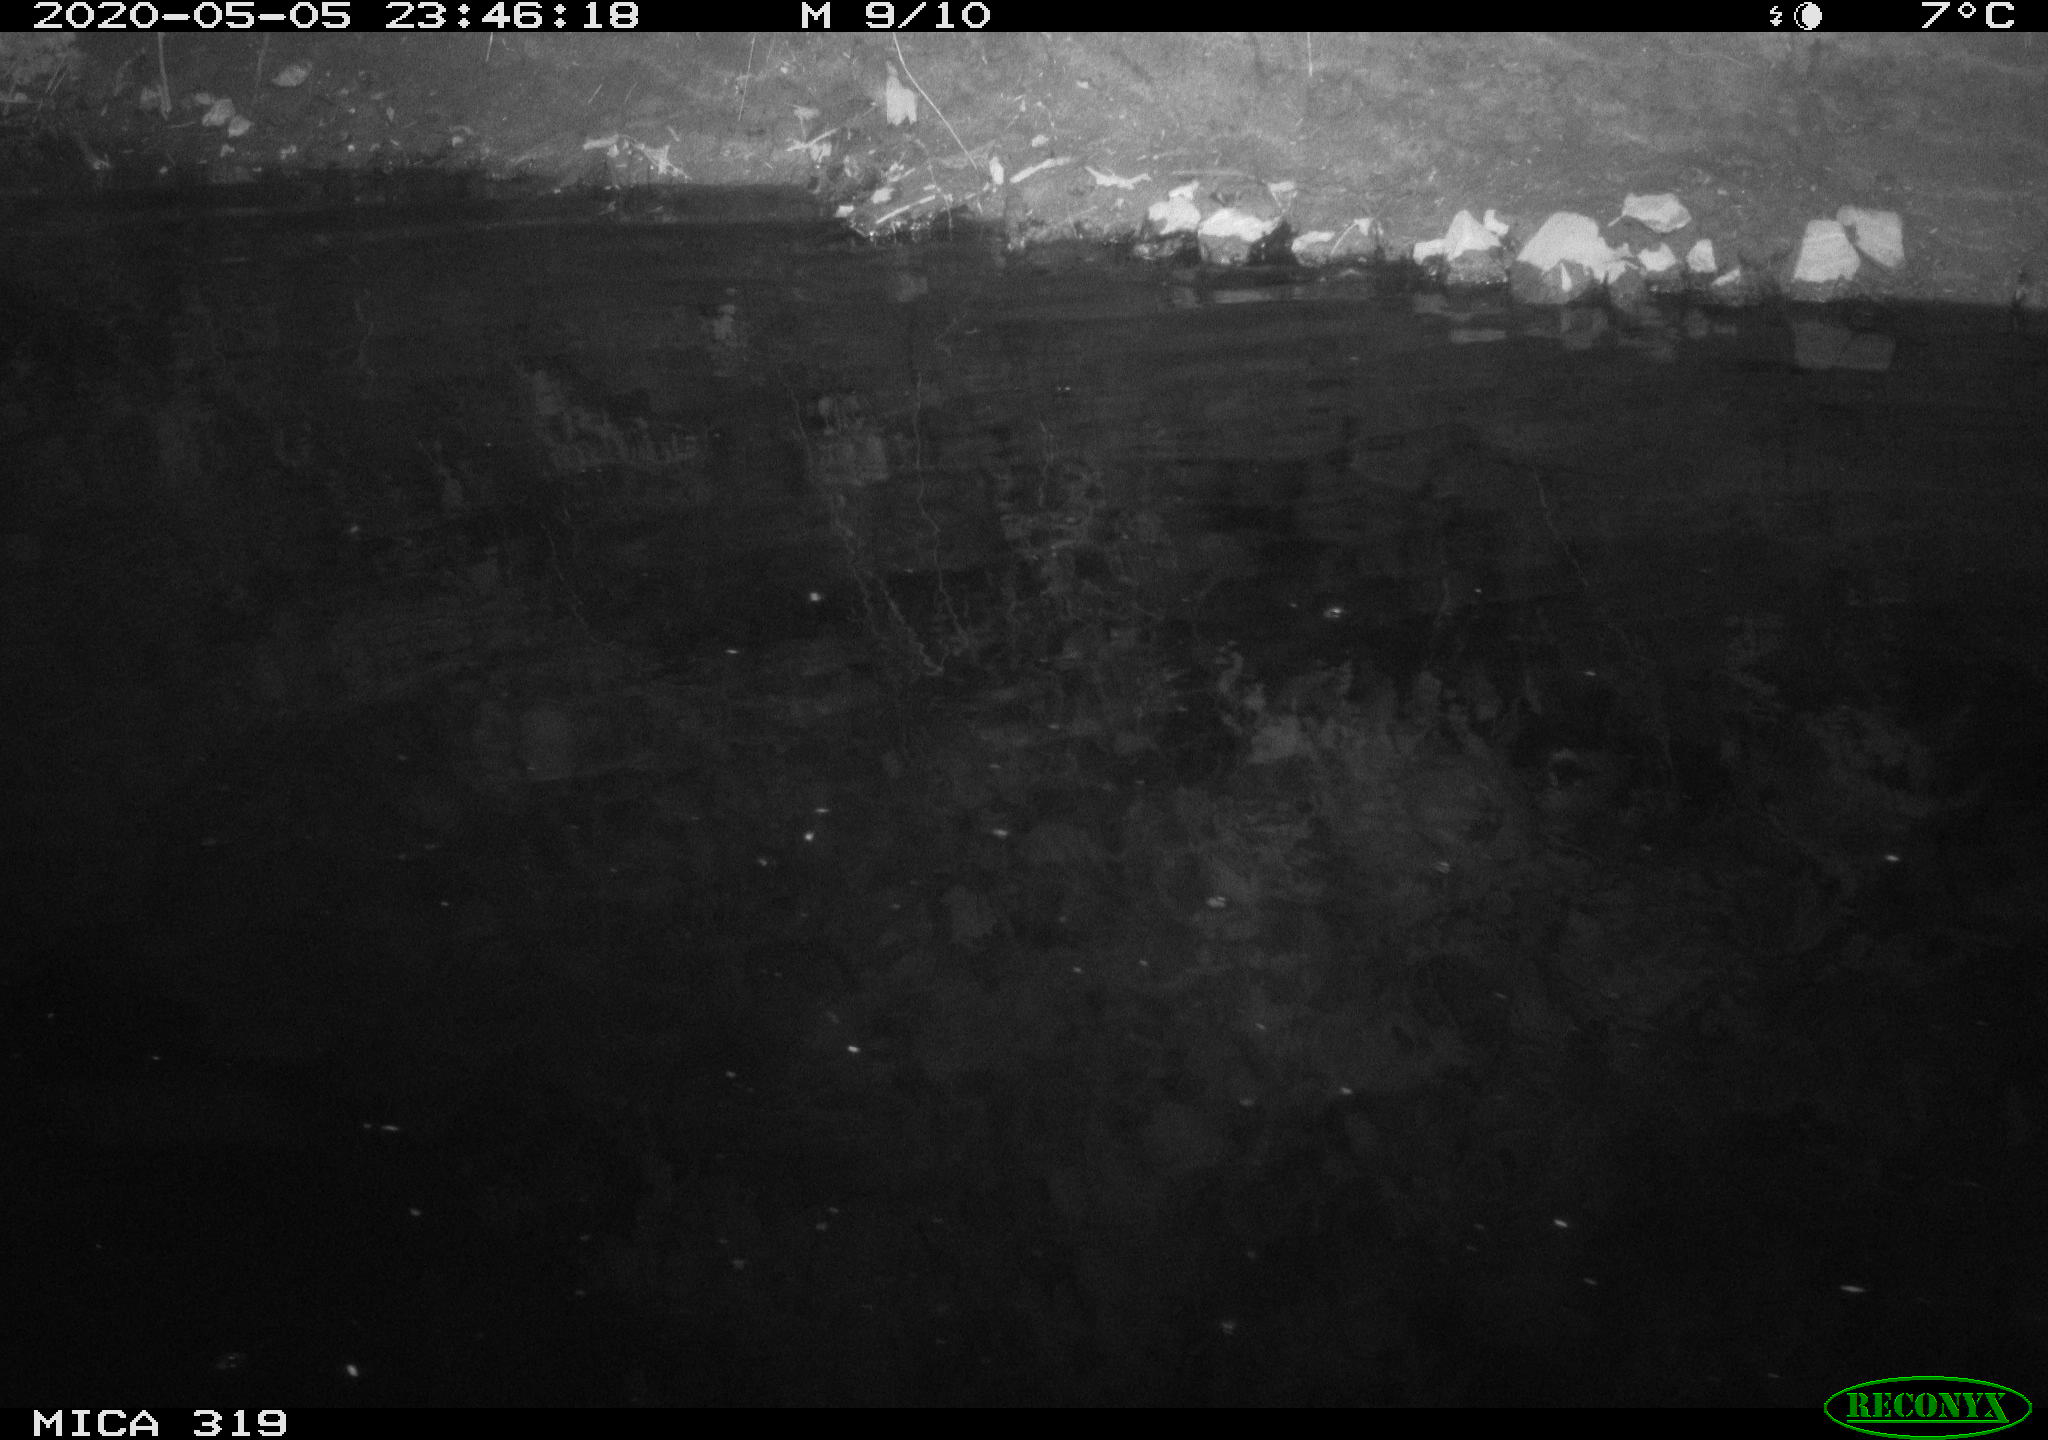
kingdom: Animalia
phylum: Chordata
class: Aves
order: Anseriformes
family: Anatidae
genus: Anas
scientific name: Anas platyrhynchos
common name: Mallard
